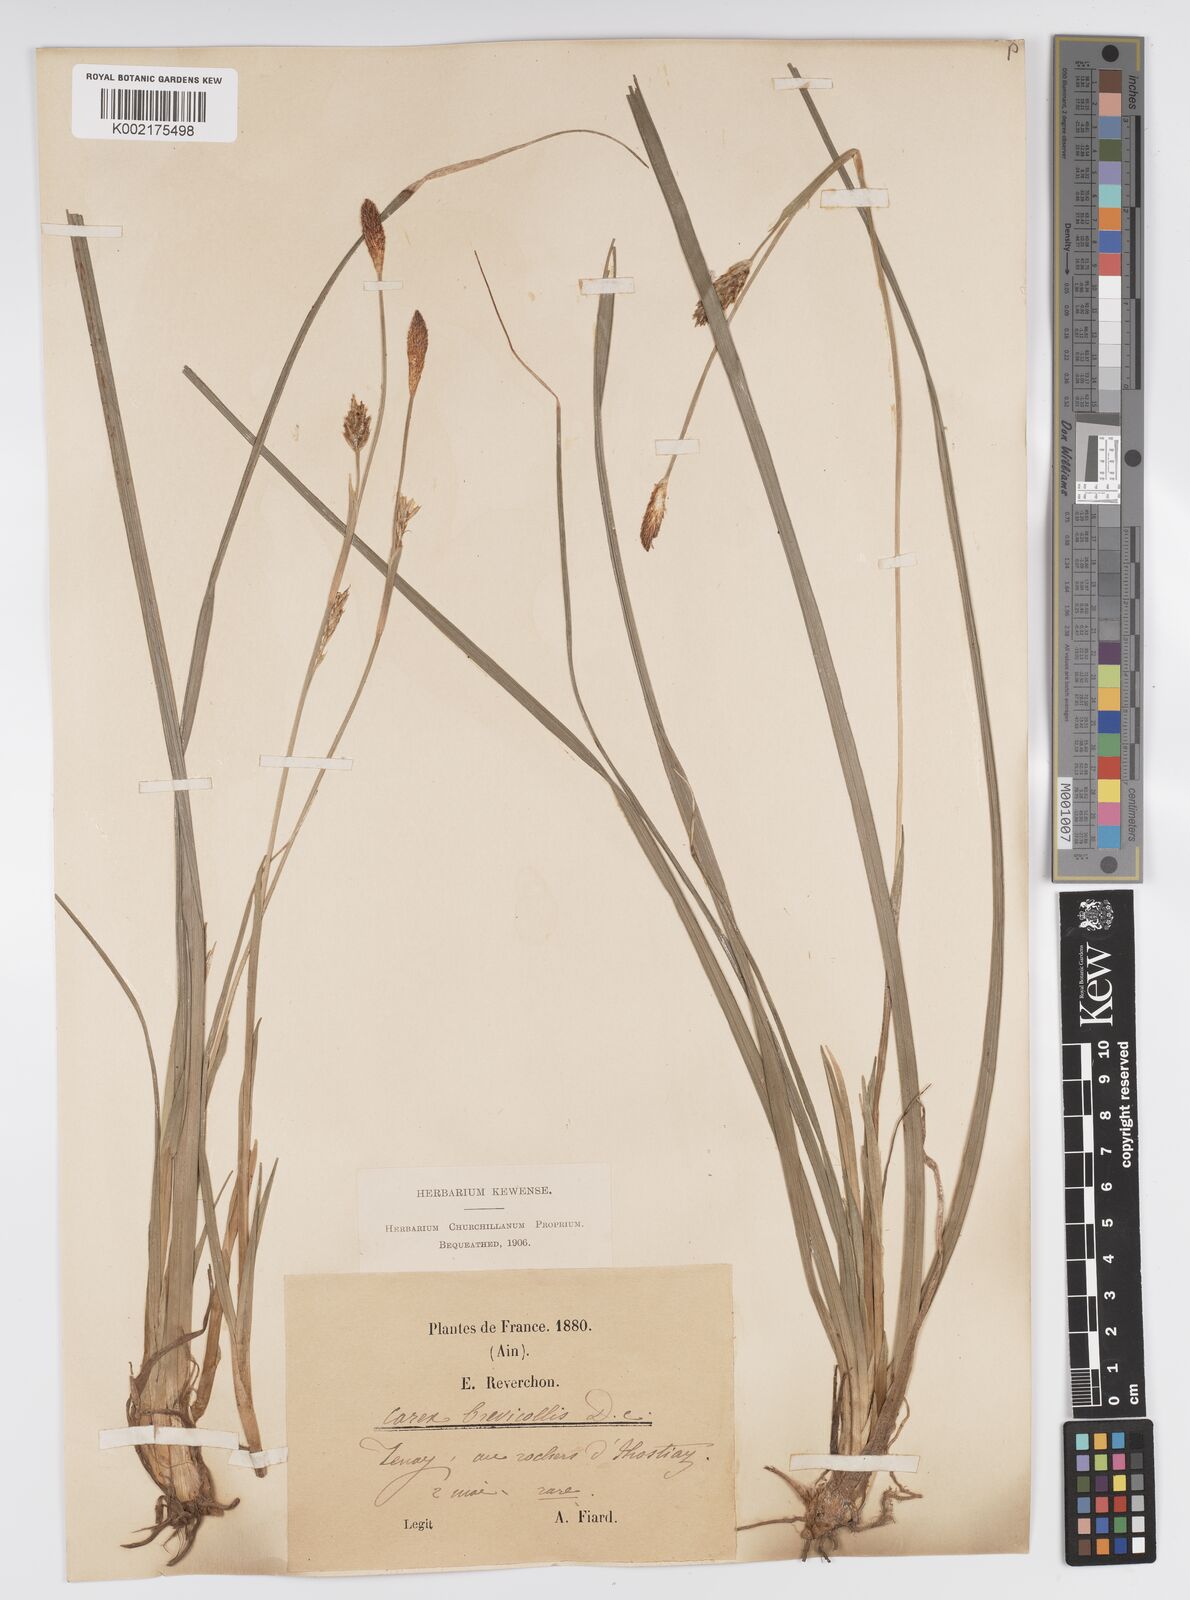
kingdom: Plantae
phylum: Tracheophyta
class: Liliopsida
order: Poales
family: Cyperaceae
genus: Carex
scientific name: Carex brevicollis
